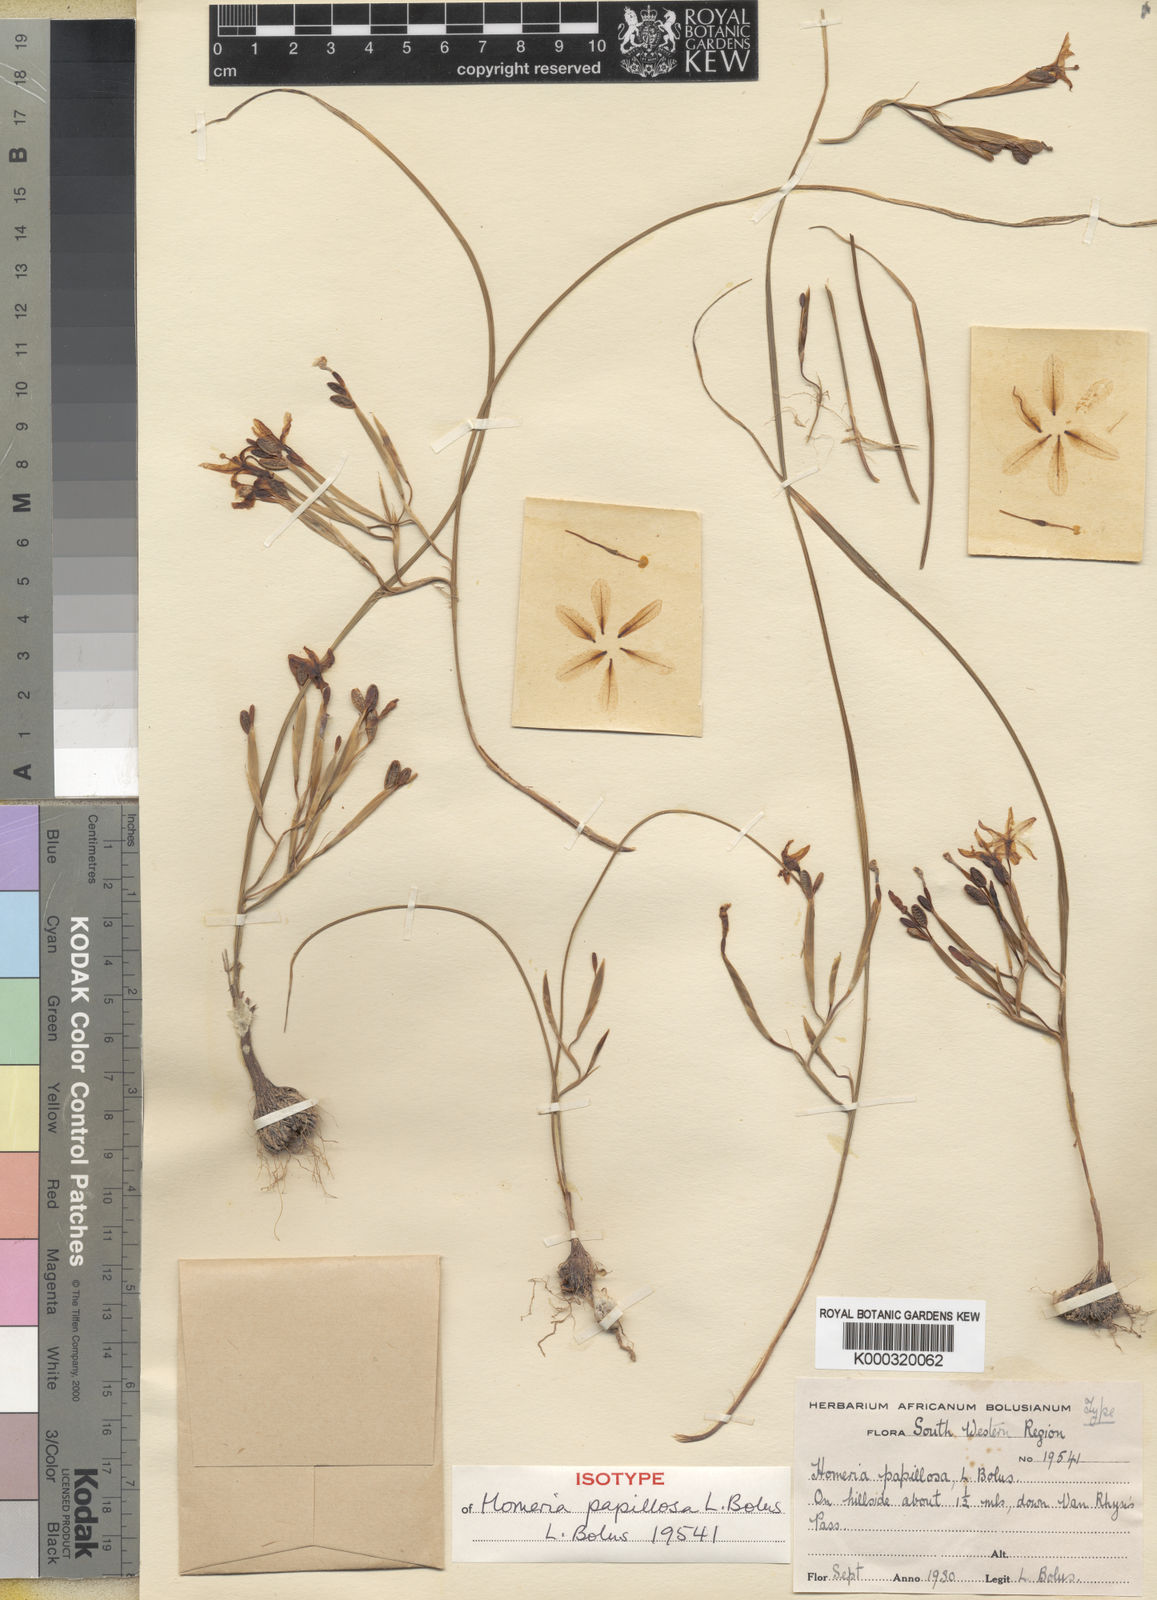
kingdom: Plantae
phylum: Tracheophyta
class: Liliopsida
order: Asparagales
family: Iridaceae
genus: Moraea
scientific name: Moraea brachygyne
